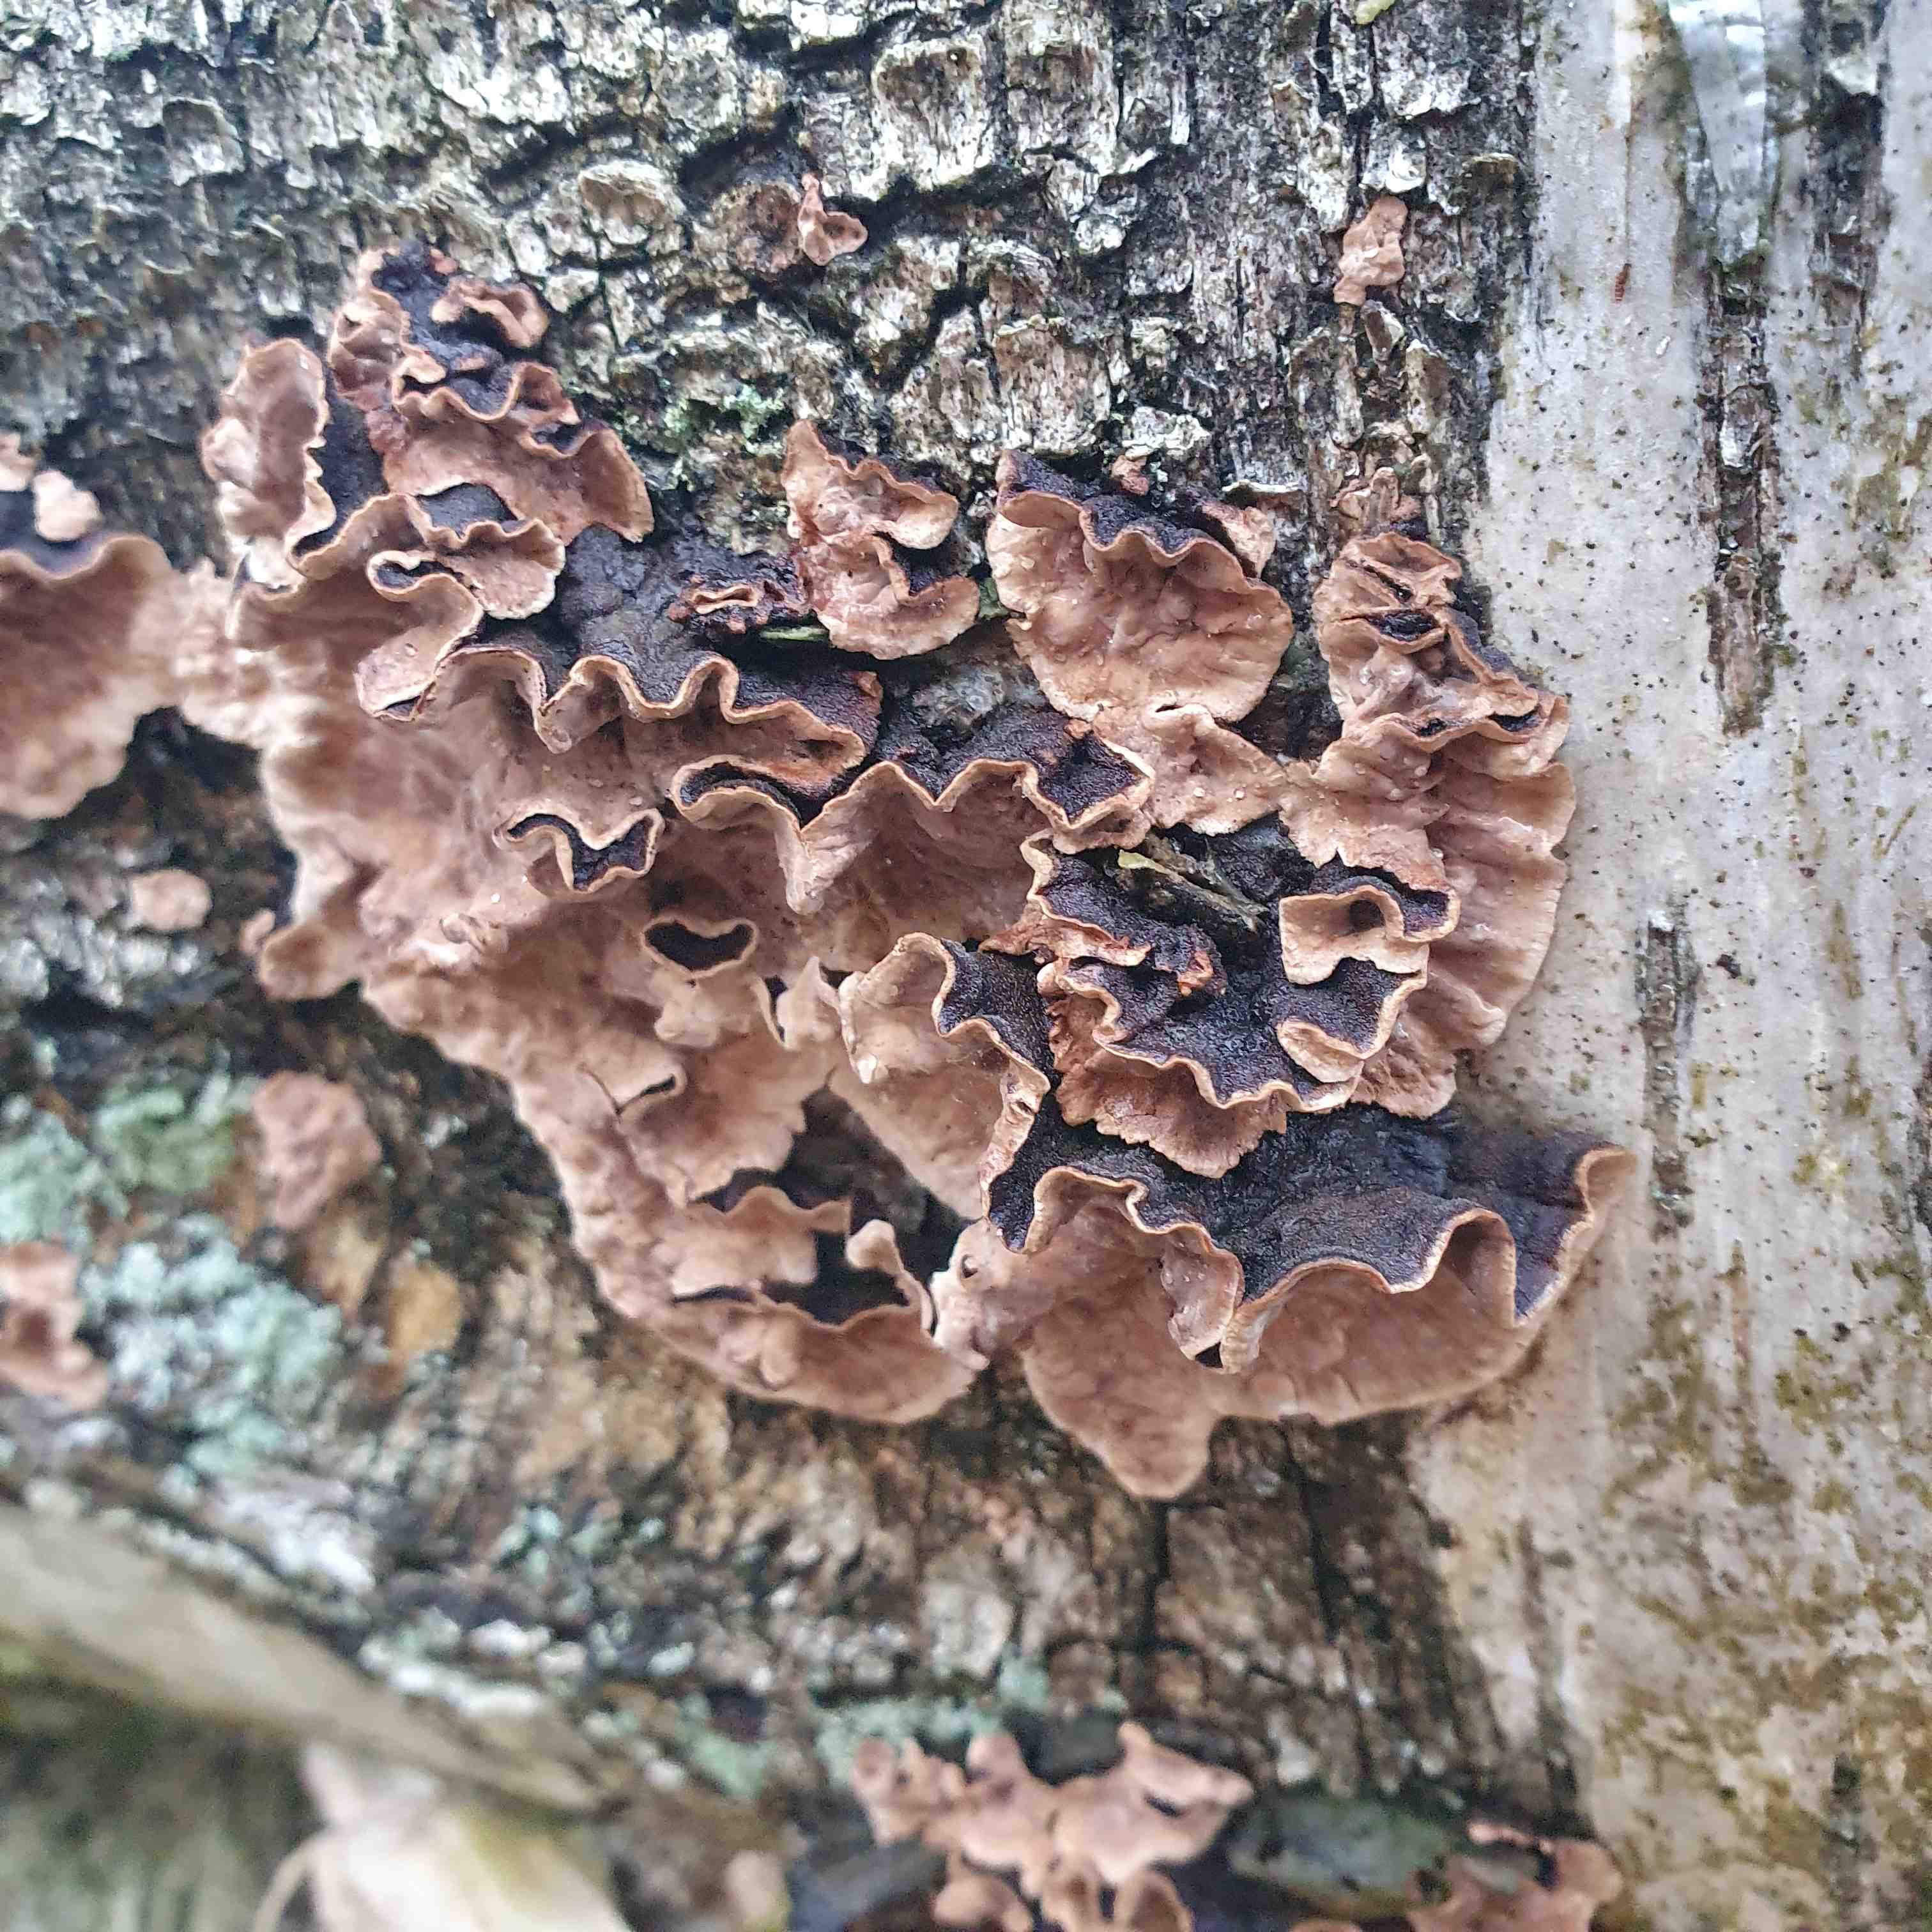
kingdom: Fungi
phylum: Basidiomycota
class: Agaricomycetes
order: Corticiales
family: Corticiaceae
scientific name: Corticiaceae
